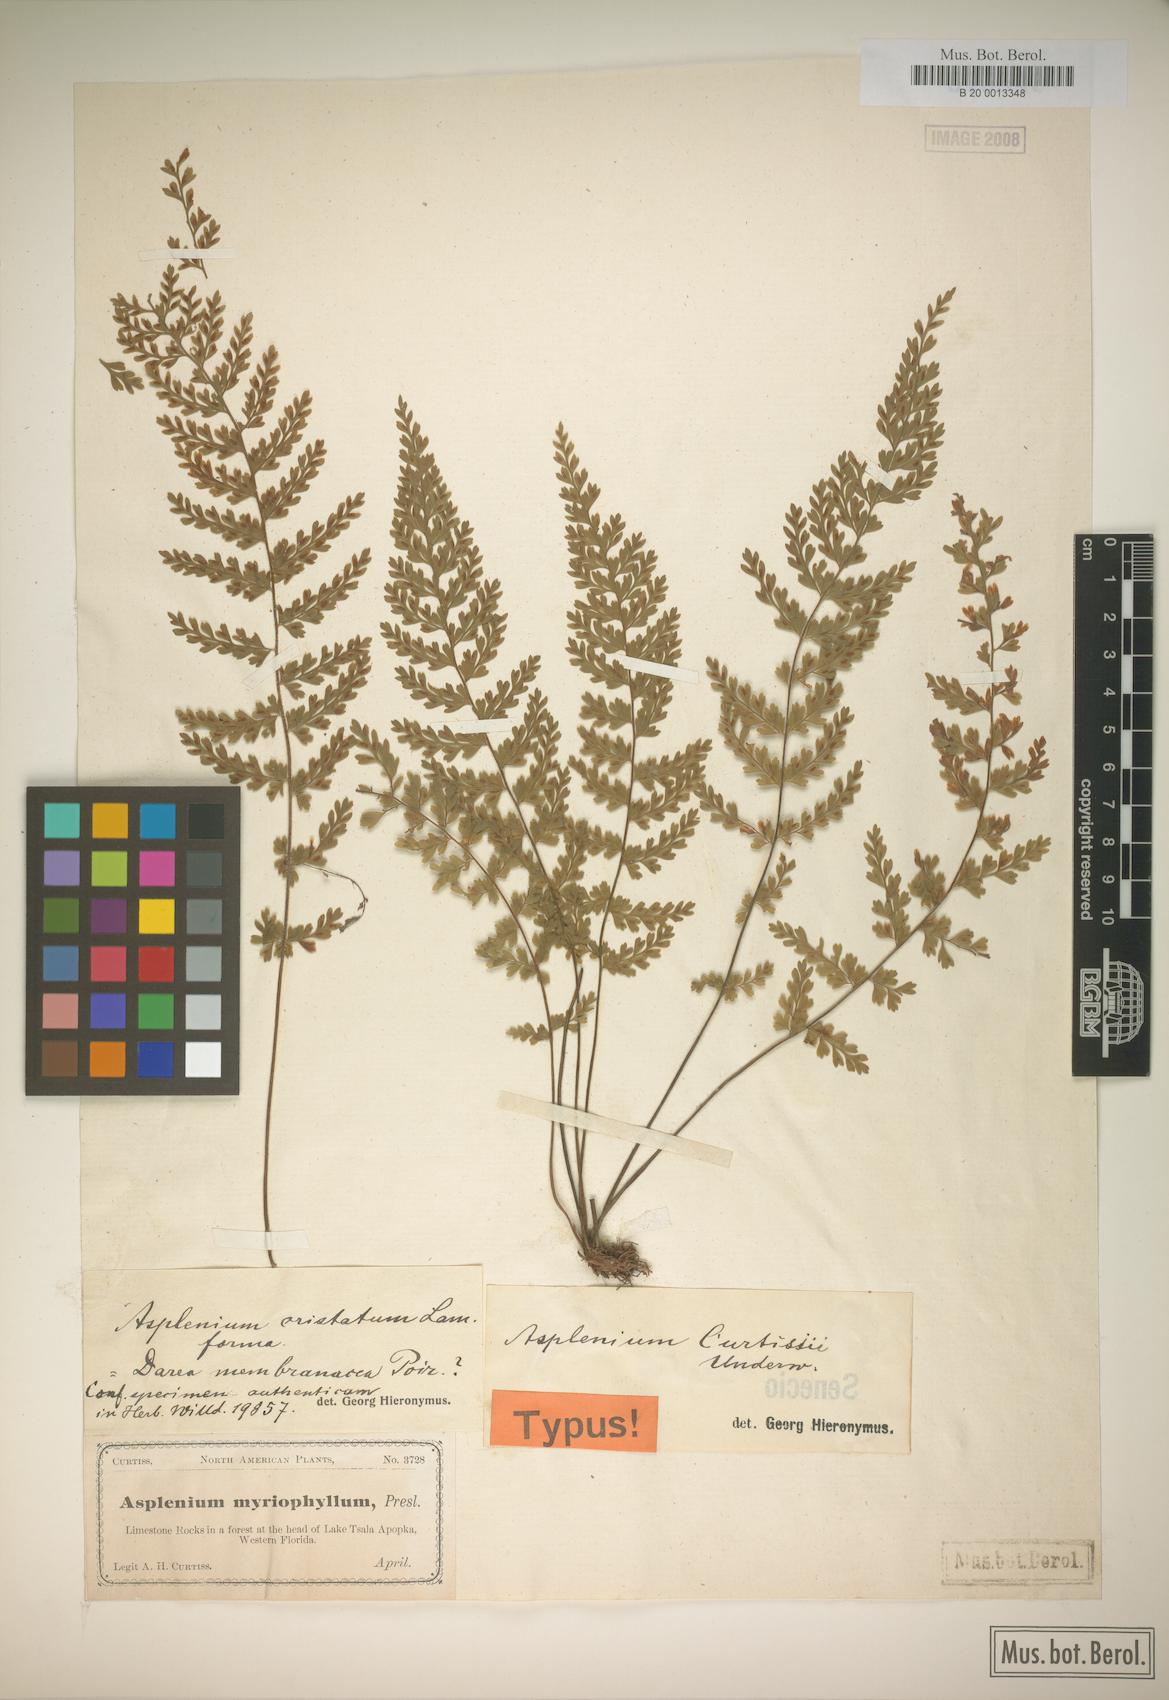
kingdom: Plantae
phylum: Tracheophyta
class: Polypodiopsida
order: Polypodiales
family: Aspleniaceae
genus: Asplenium
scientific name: Asplenium curtissii
